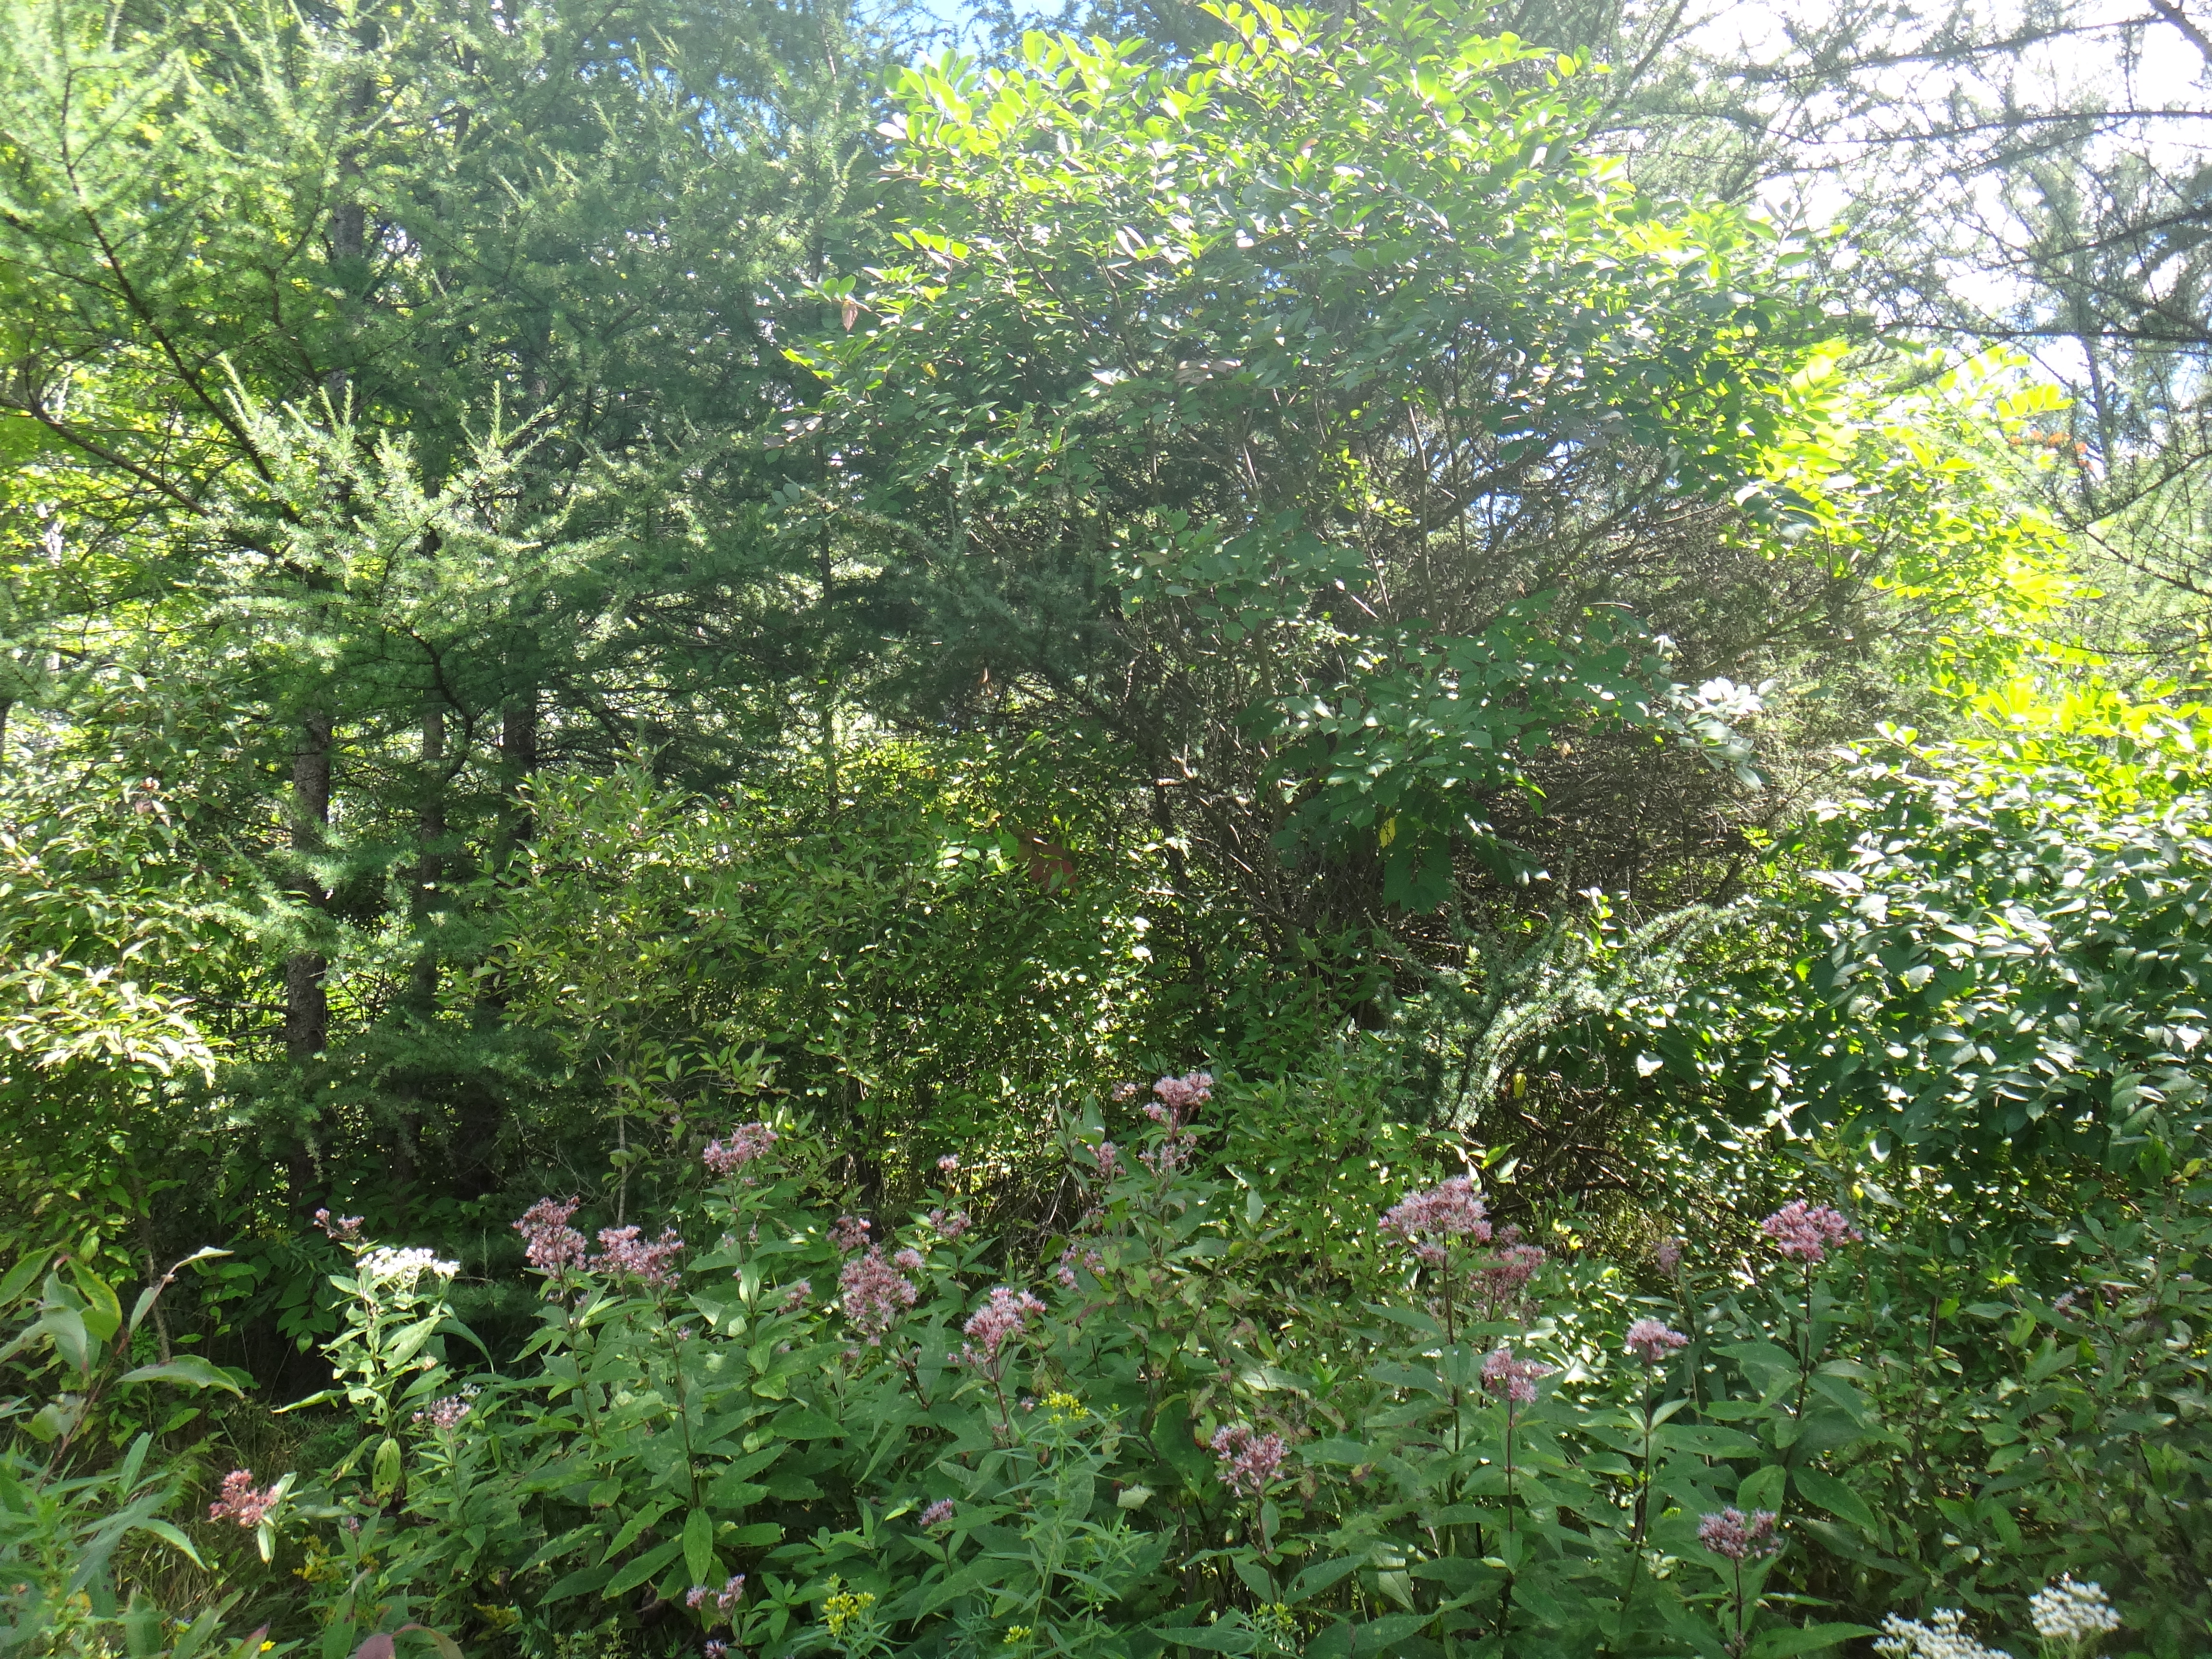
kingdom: Plantae
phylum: Tracheophyta
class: Magnoliopsida
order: Asterales
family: Asteraceae
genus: Euthamia
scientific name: Euthamia graminifolia
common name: Common goldentop
